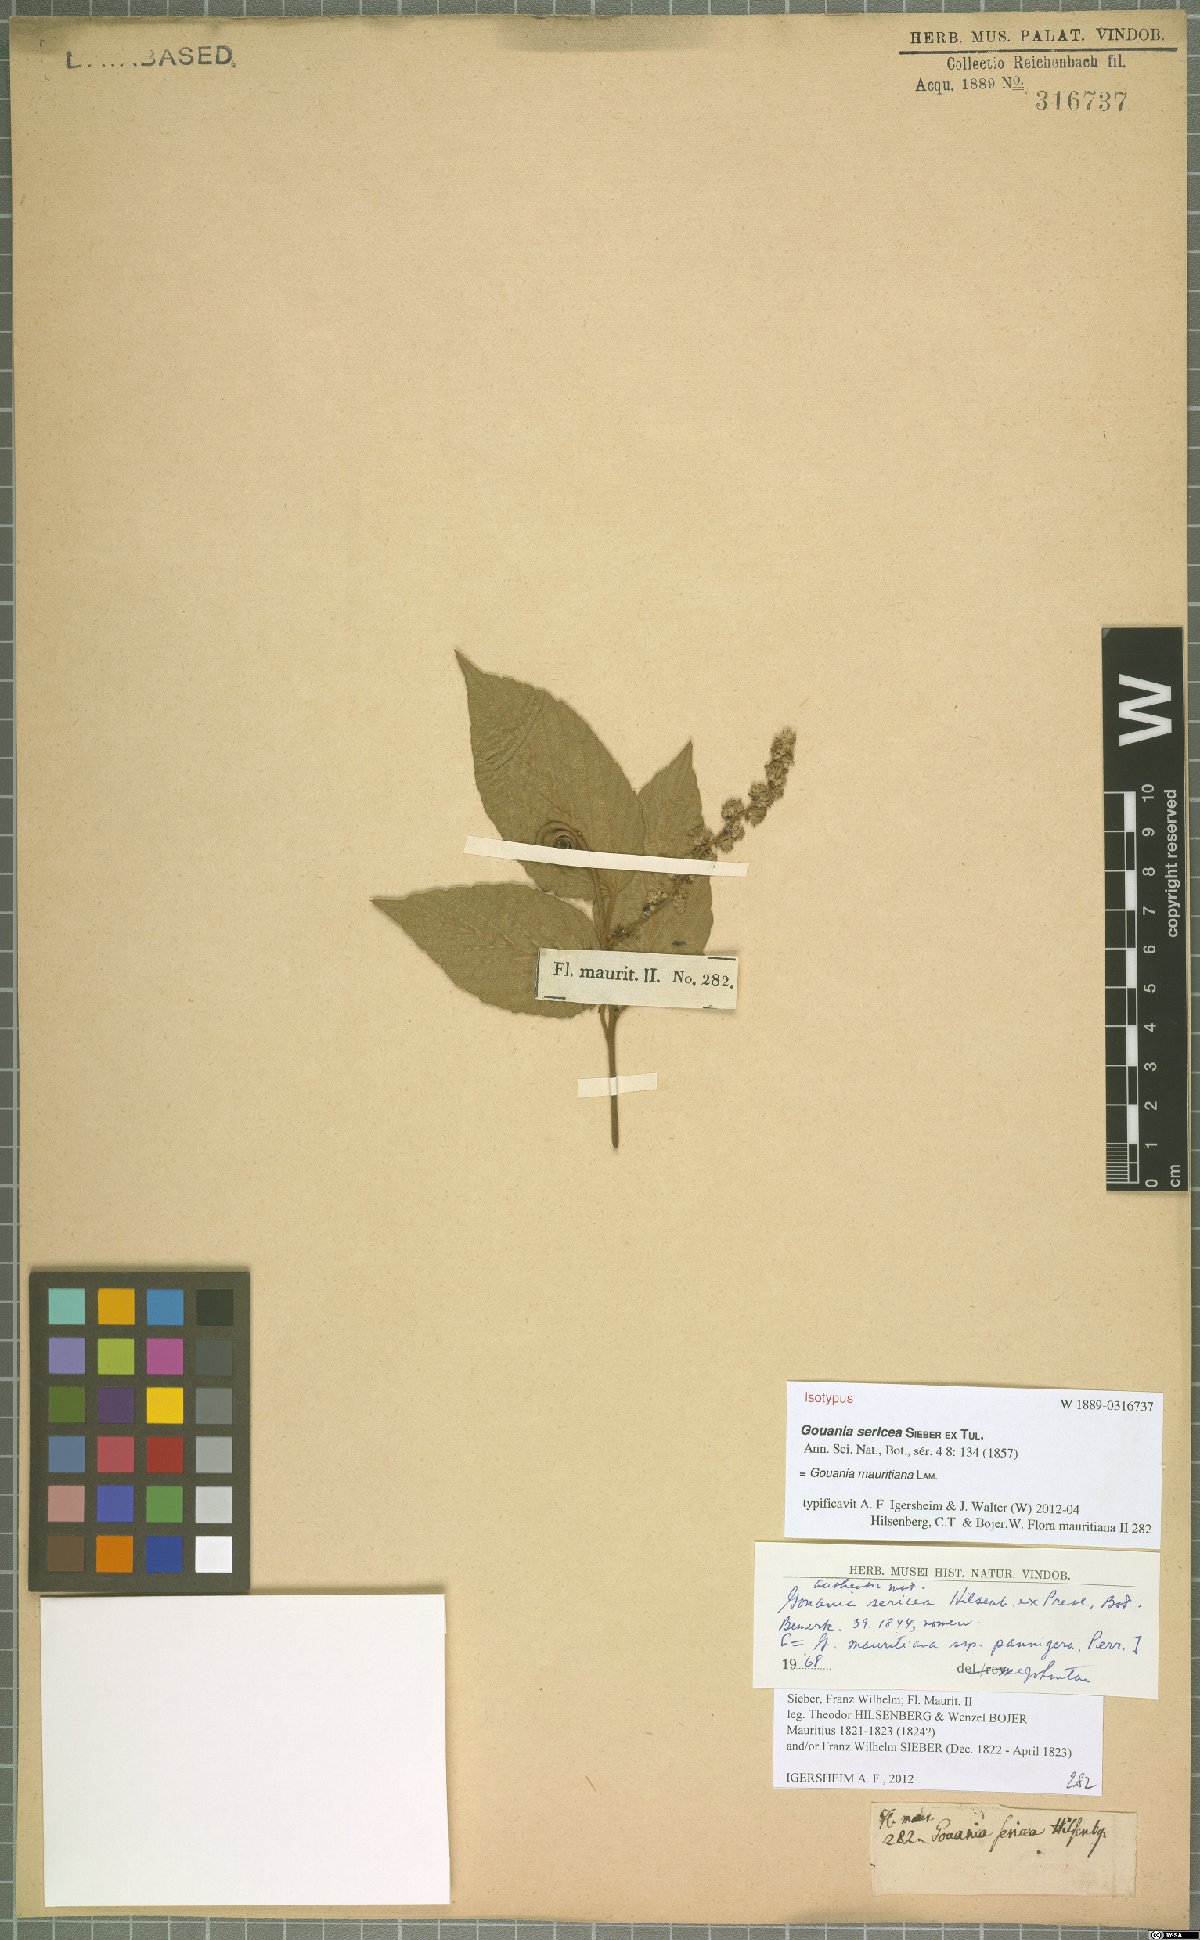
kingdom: Plantae
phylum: Tracheophyta
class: Magnoliopsida
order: Rosales
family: Rhamnaceae
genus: Gouania
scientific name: Gouania mauritiana
